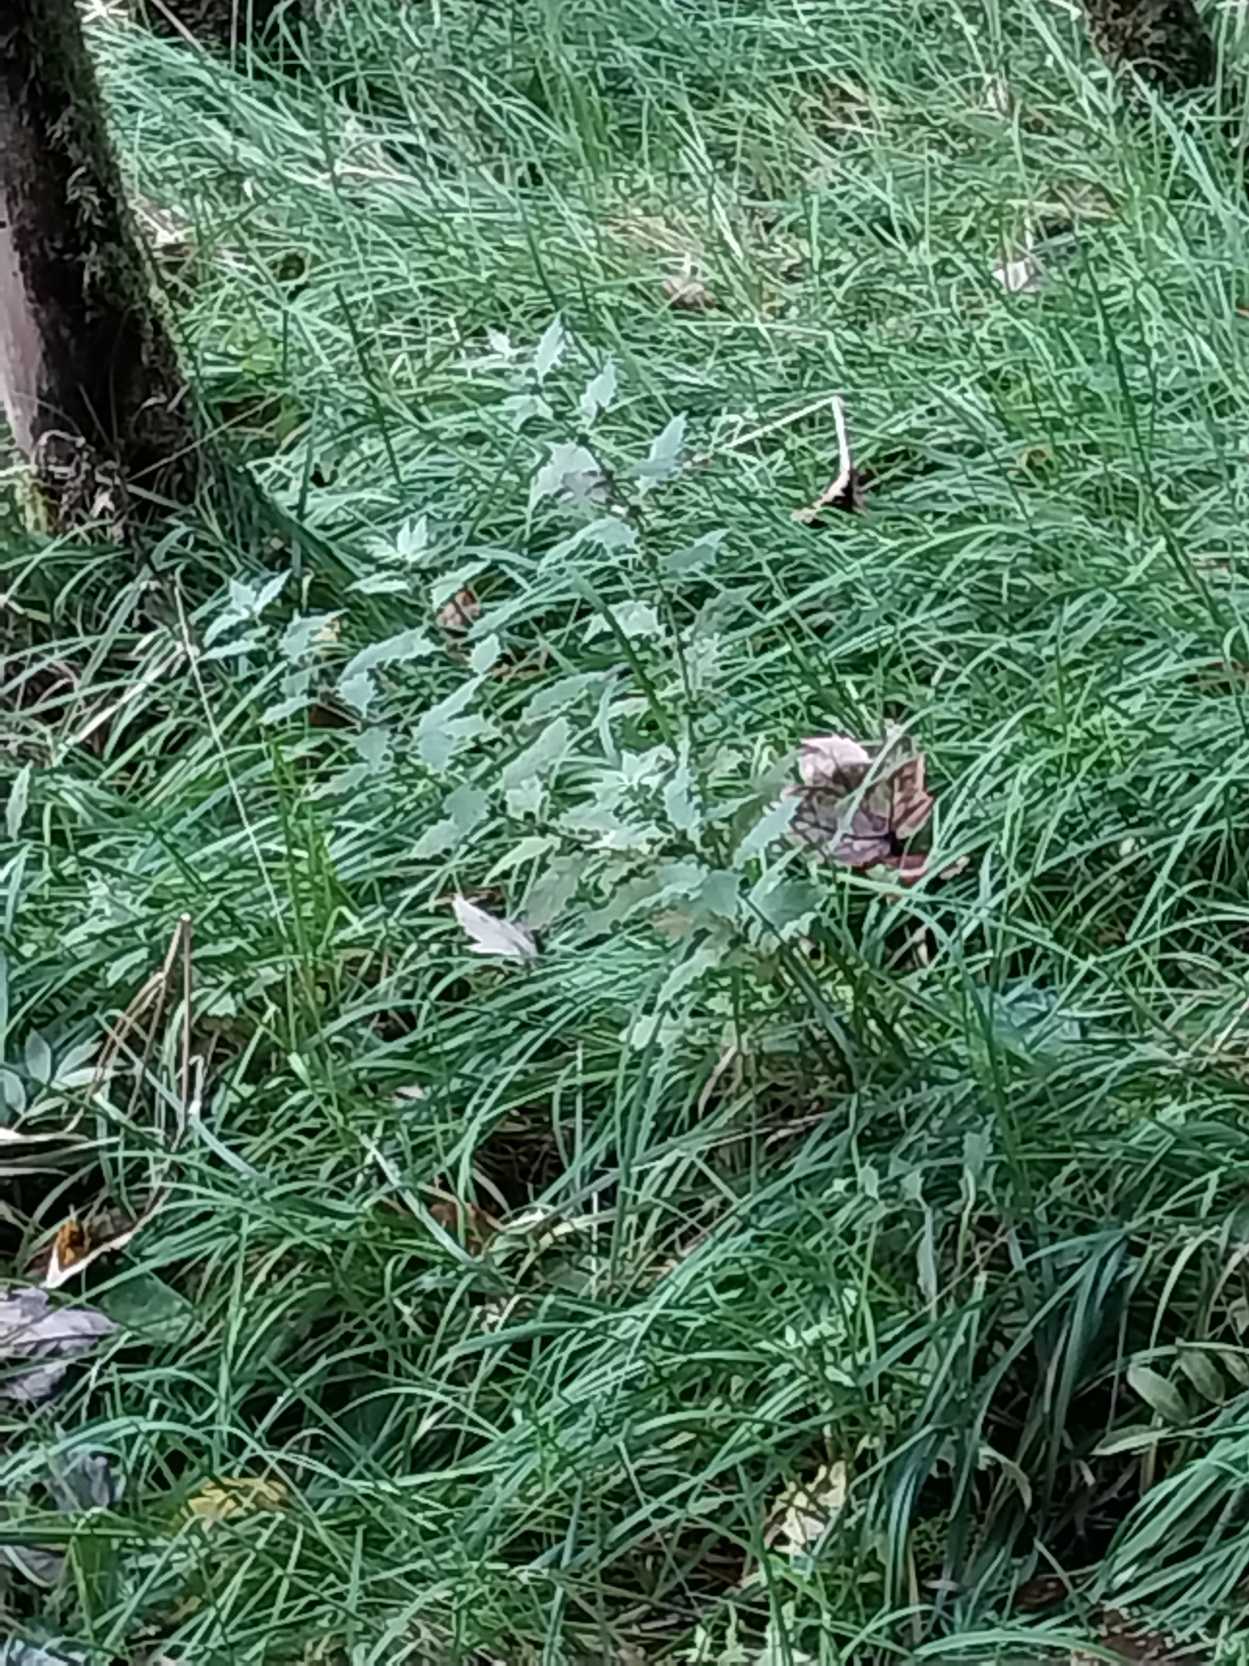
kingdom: Plantae
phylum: Tracheophyta
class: Magnoliopsida
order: Lamiales
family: Lamiaceae
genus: Lycopus
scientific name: Lycopus europaeus
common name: Sværtevæld
